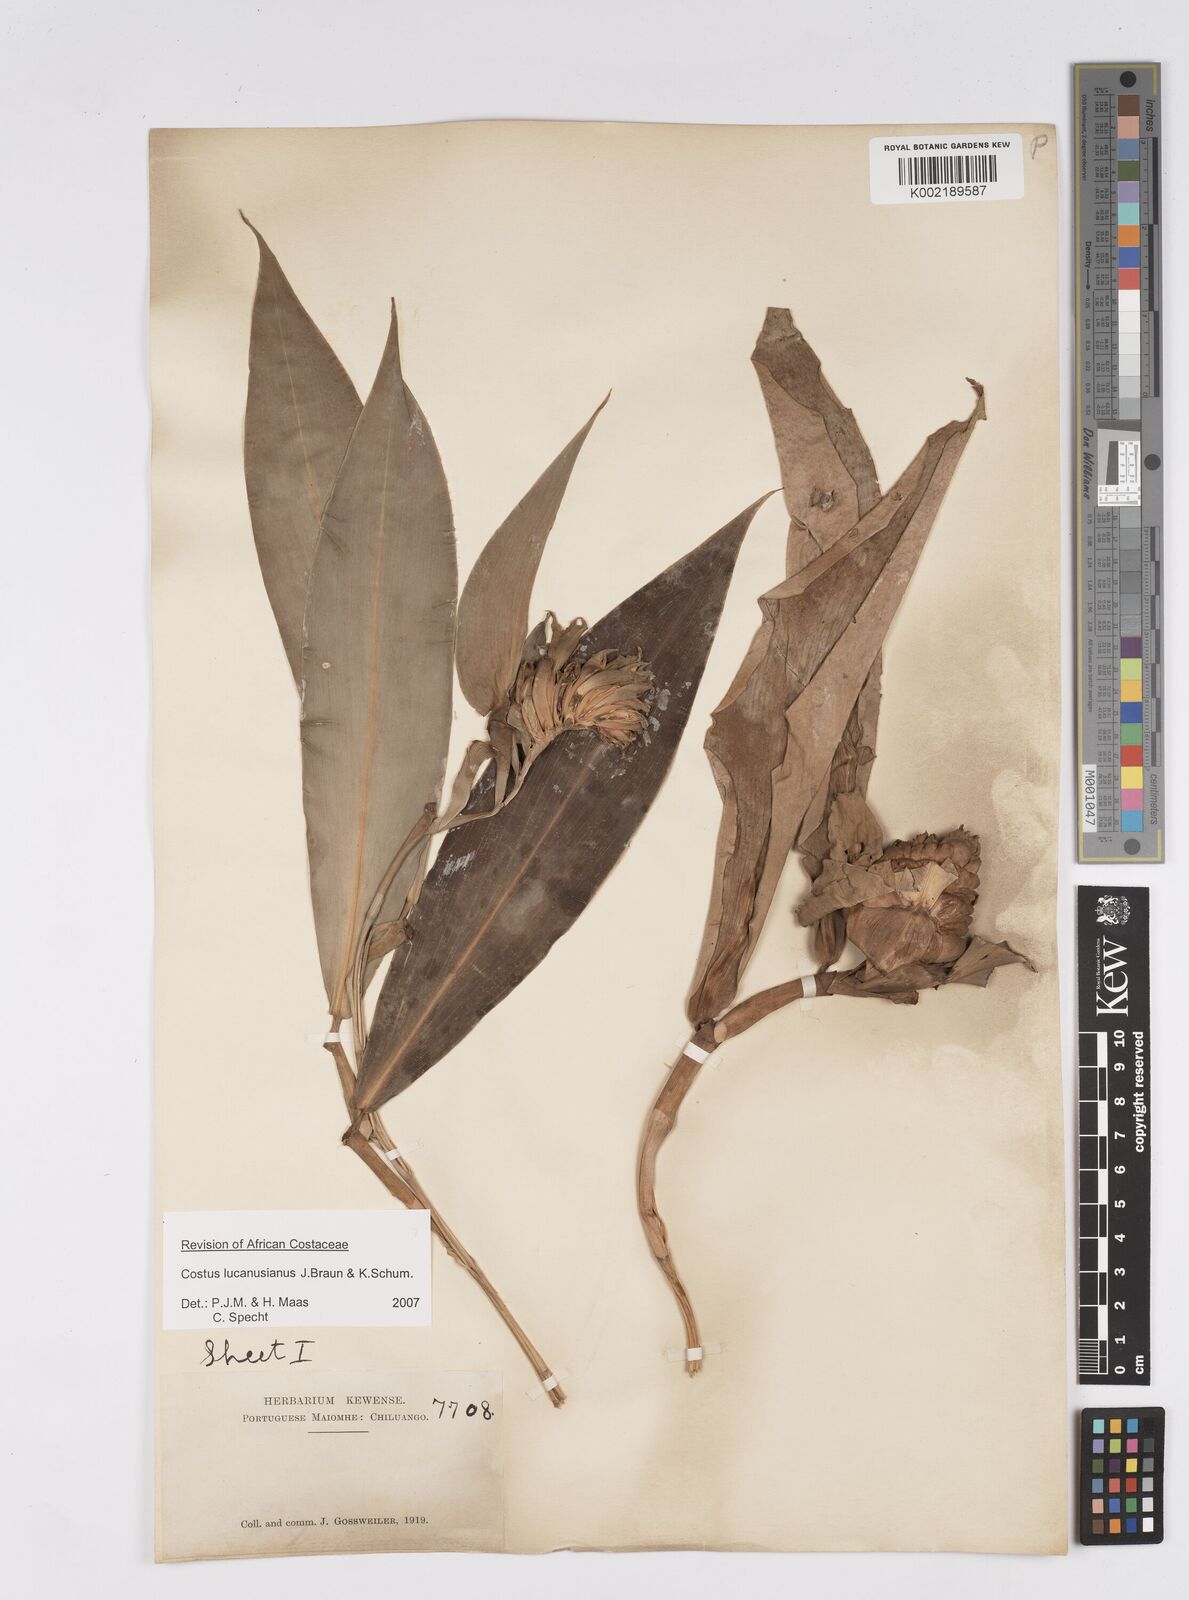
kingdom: Plantae
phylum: Tracheophyta
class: Liliopsida
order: Zingiberales
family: Costaceae
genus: Costus
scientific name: Costus lucanusianus
